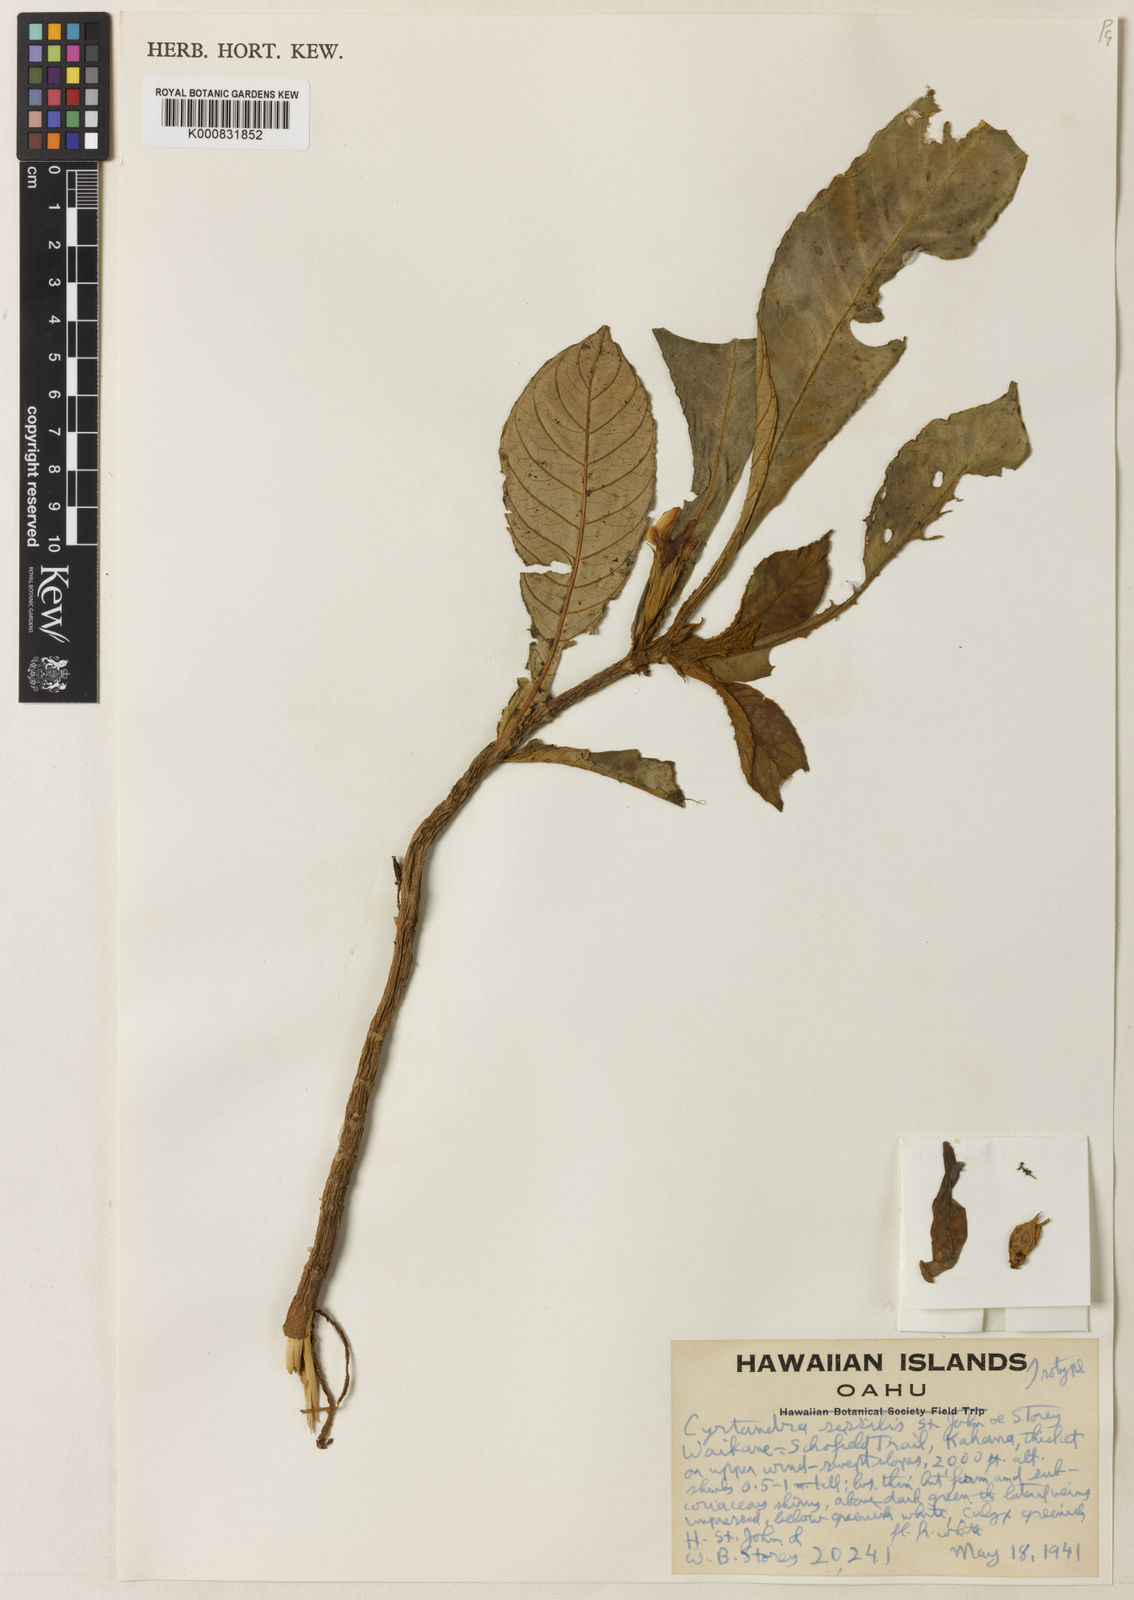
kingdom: Plantae
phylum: Tracheophyta
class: Magnoliopsida
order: Lamiales
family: Gesneriaceae
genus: Cyrtandra
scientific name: Cyrtandra sessilis
